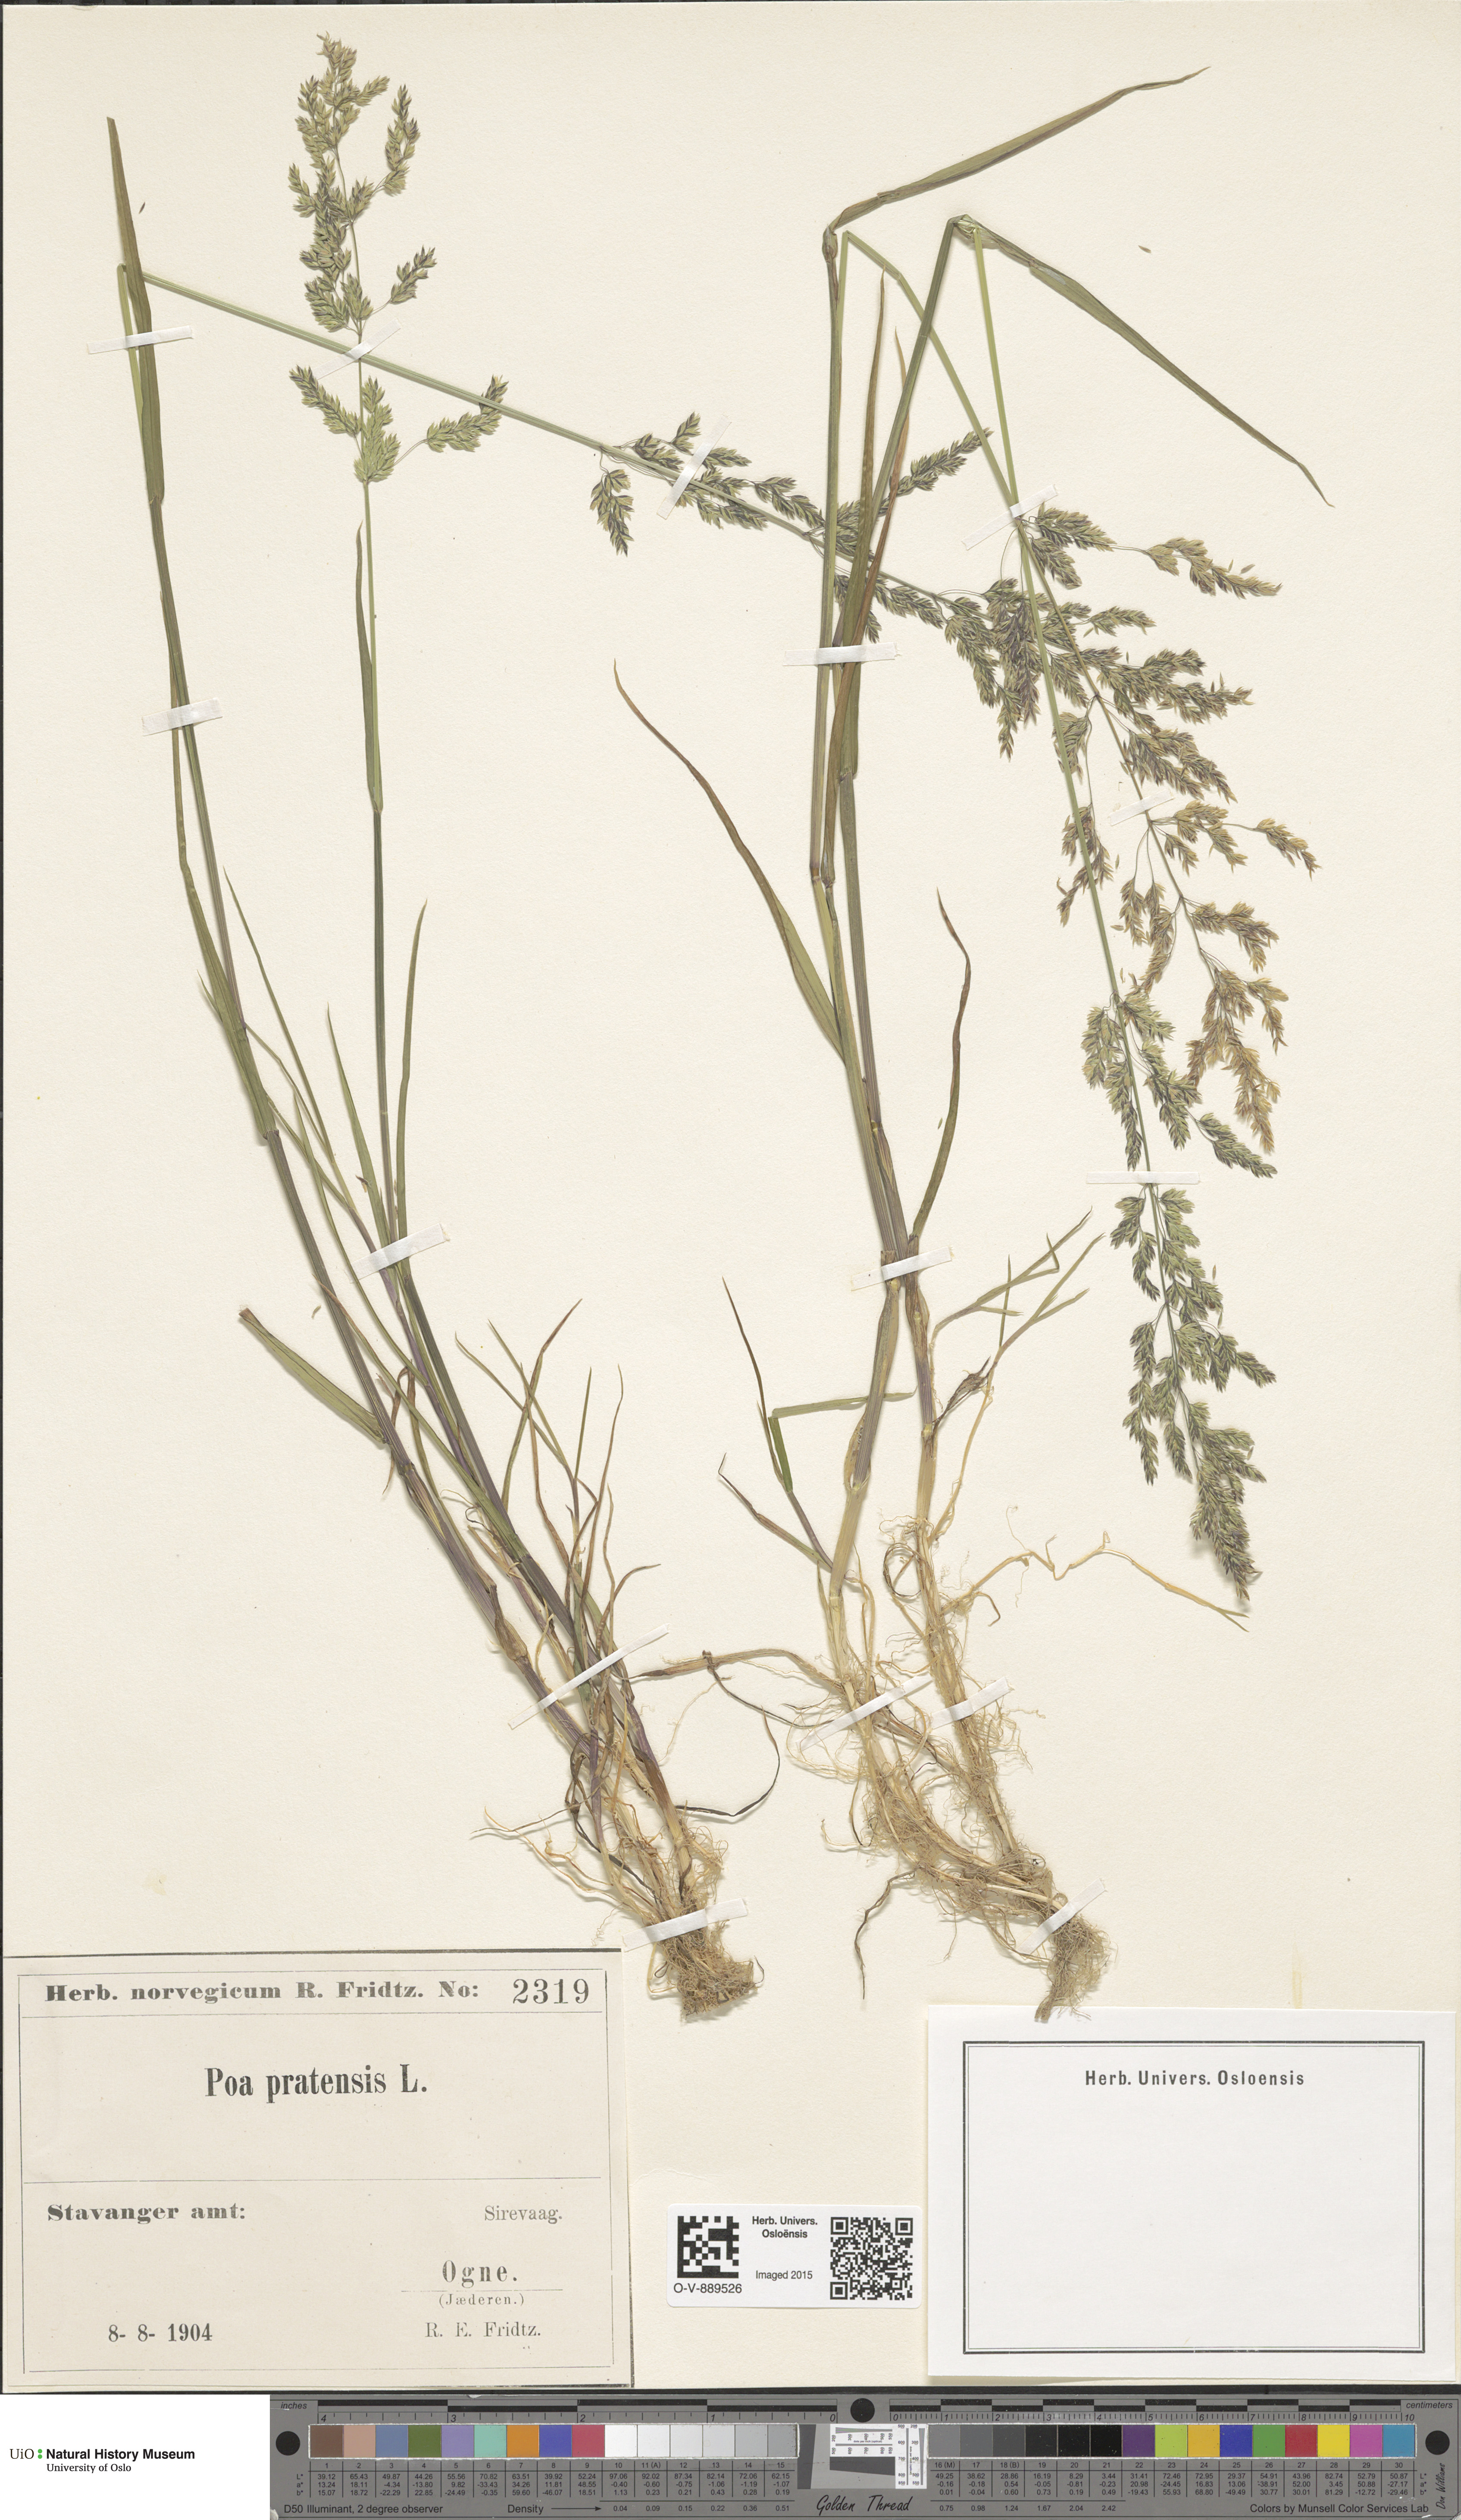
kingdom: Plantae
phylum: Tracheophyta
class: Liliopsida
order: Poales
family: Poaceae
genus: Poa
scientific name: Poa pratensis
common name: Kentucky bluegrass
